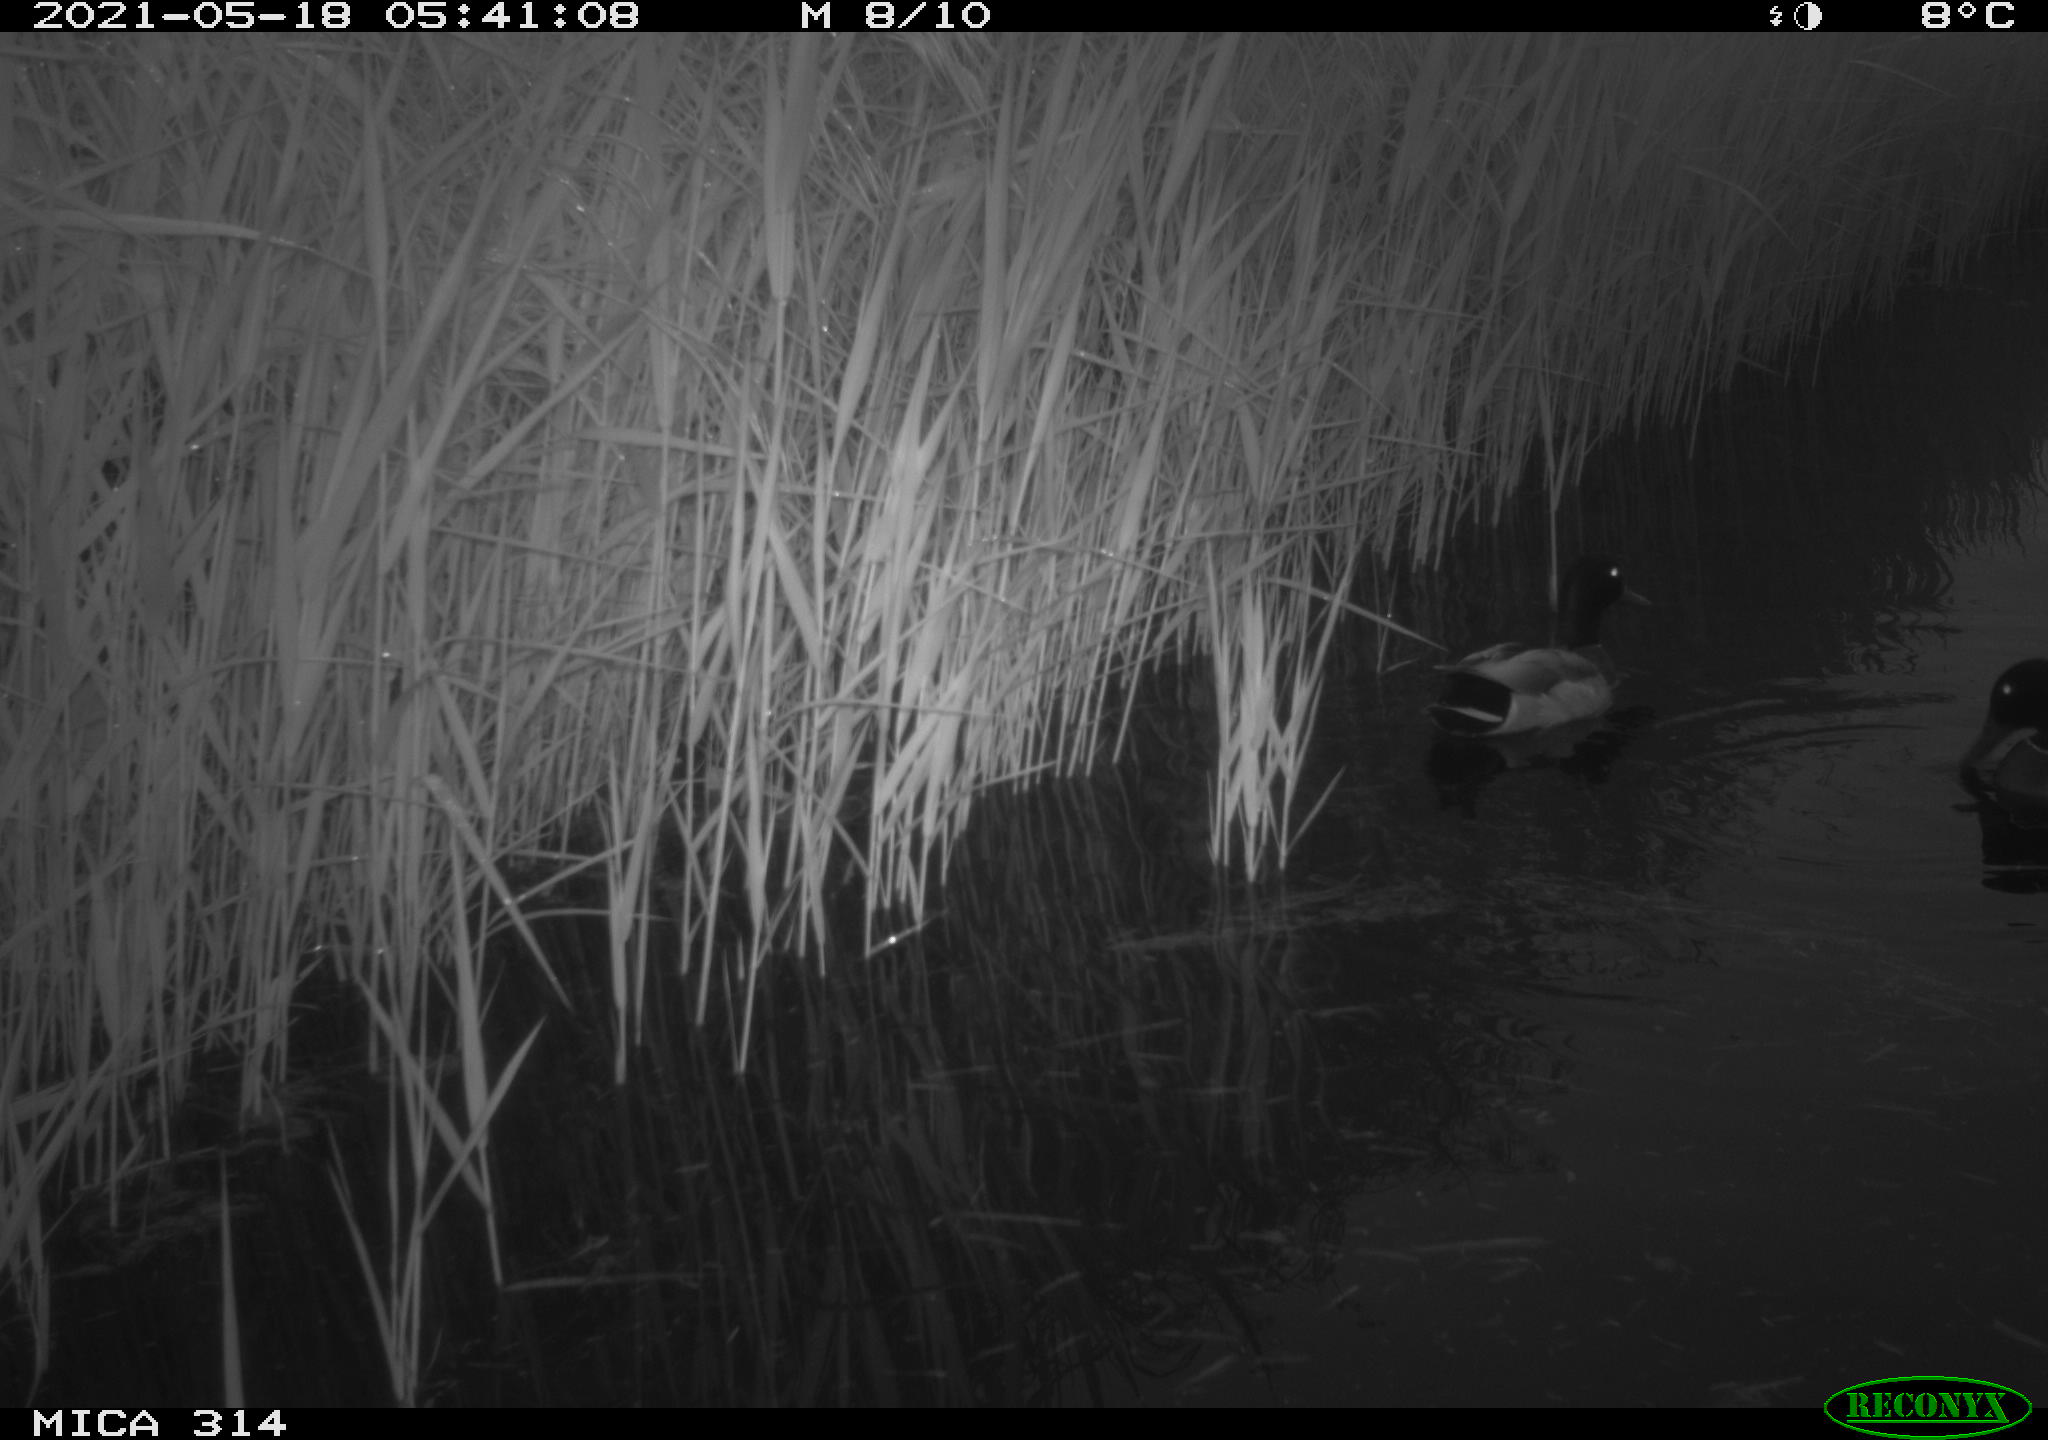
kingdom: Animalia
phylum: Chordata
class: Aves
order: Anseriformes
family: Anatidae
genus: Anas
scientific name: Anas platyrhynchos
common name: Mallard
